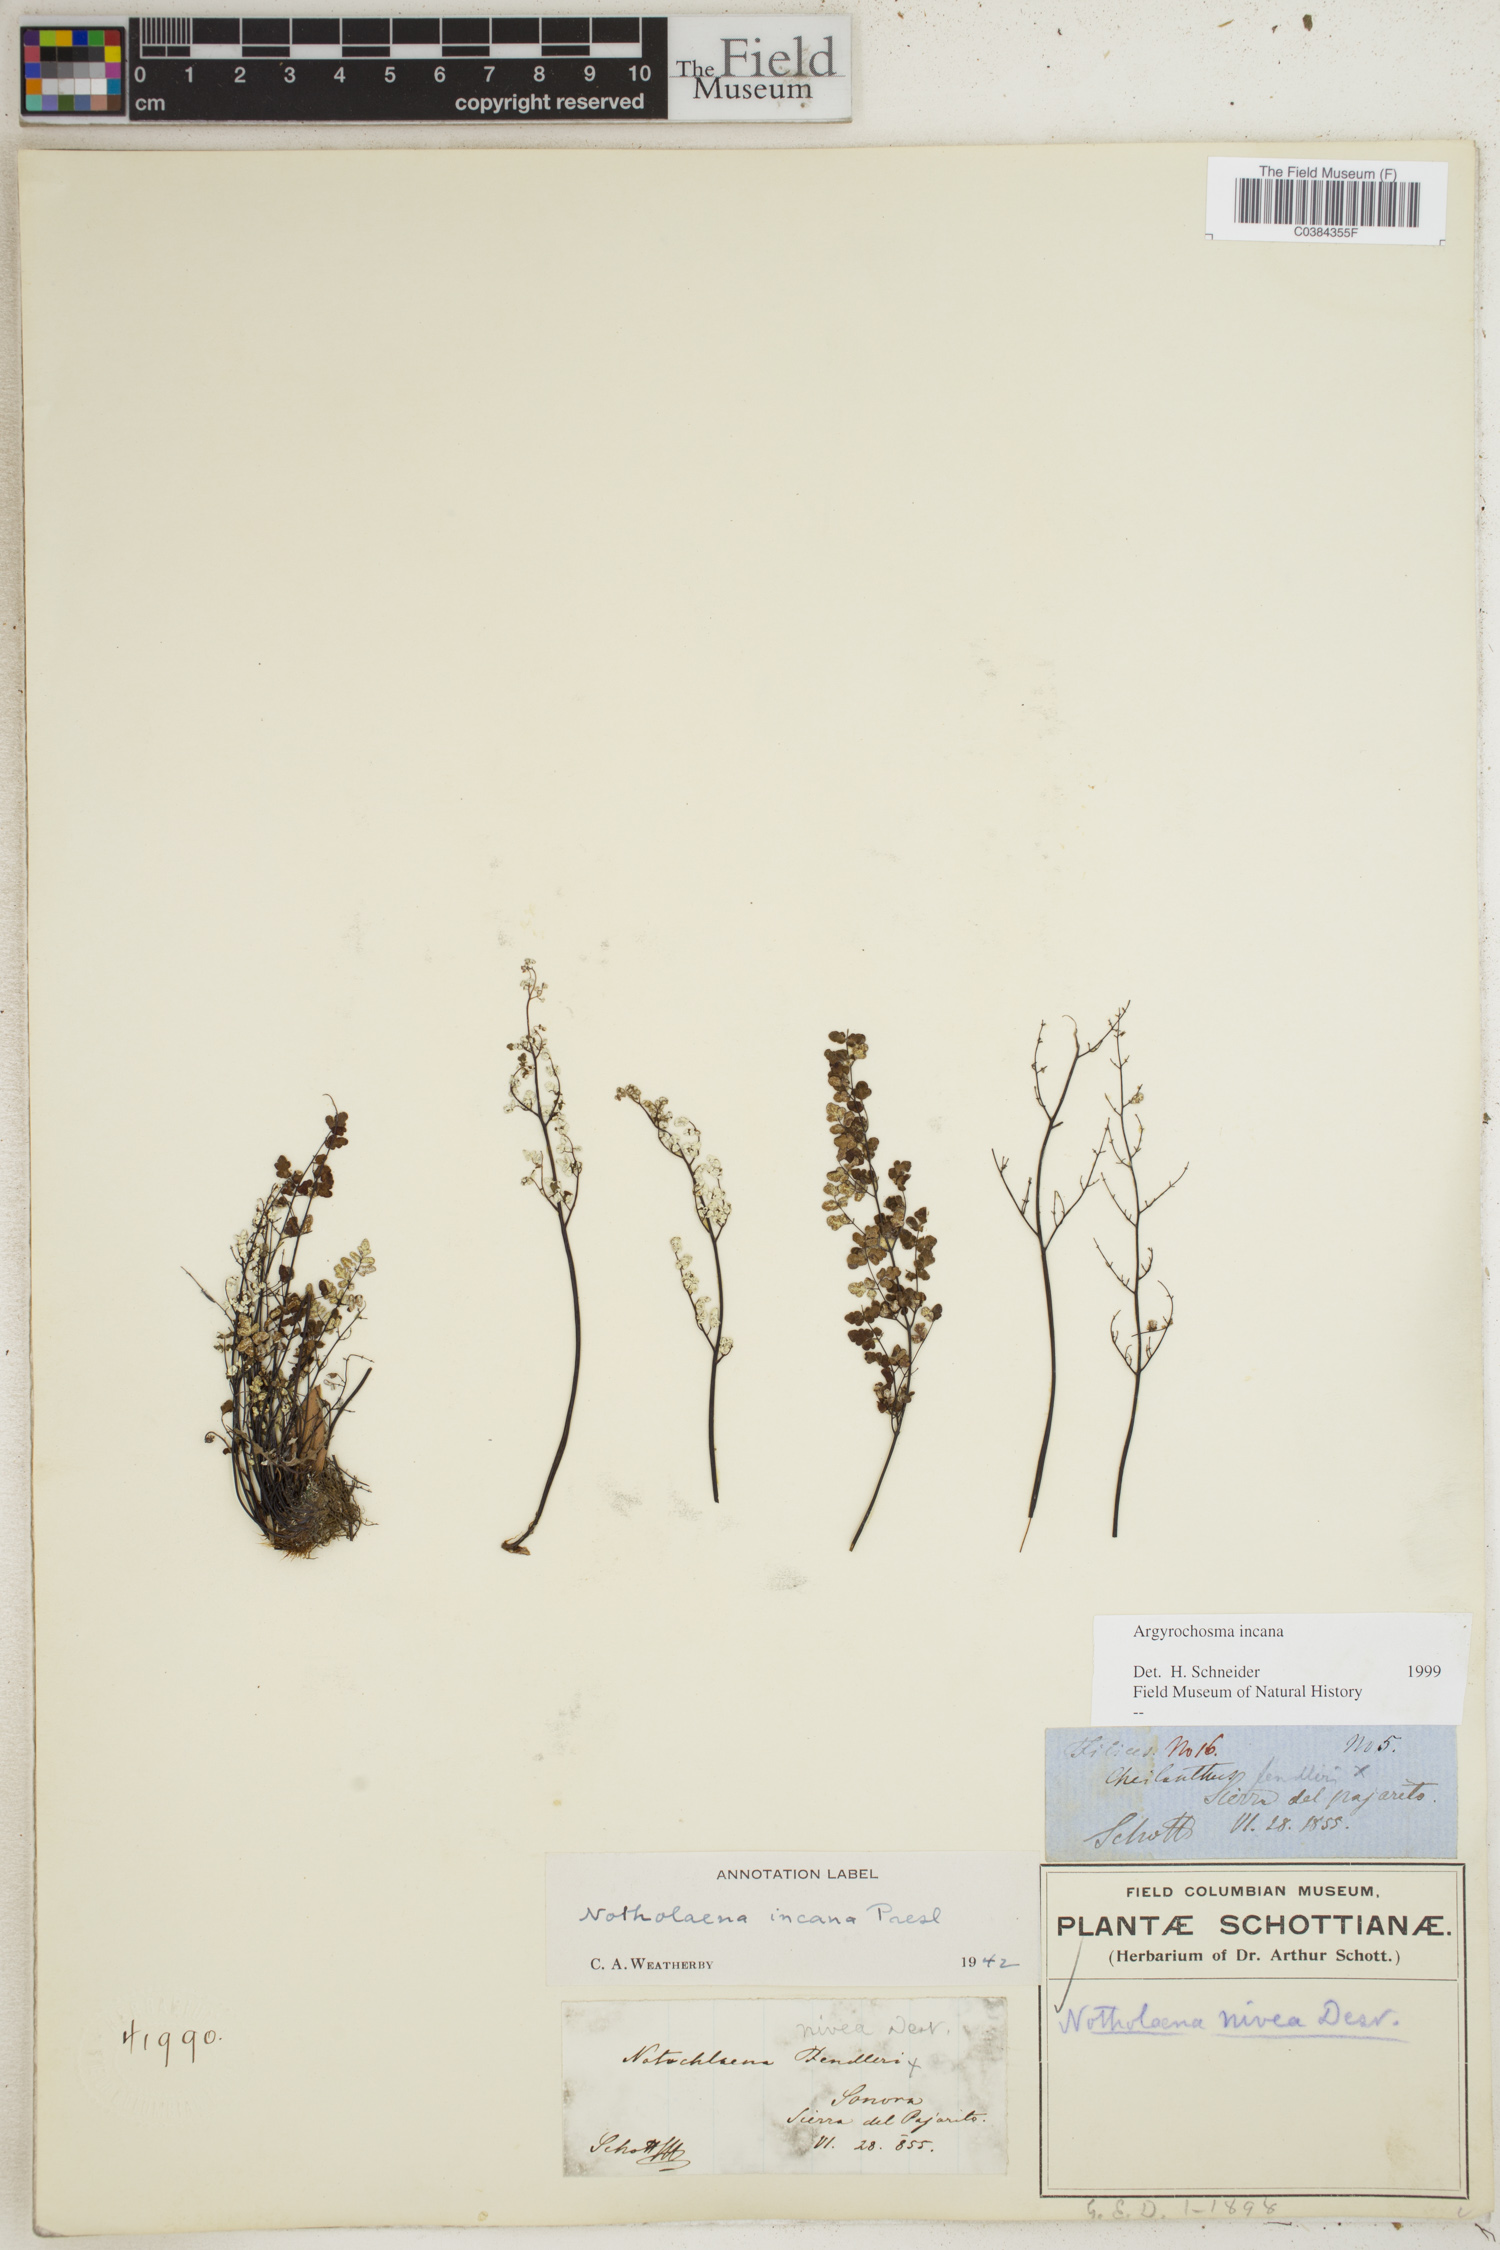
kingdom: Plantae
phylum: Tracheophyta
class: Polypodiopsida
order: Polypodiales
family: Pteridaceae
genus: Argyrochosma
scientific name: Argyrochosma incana
